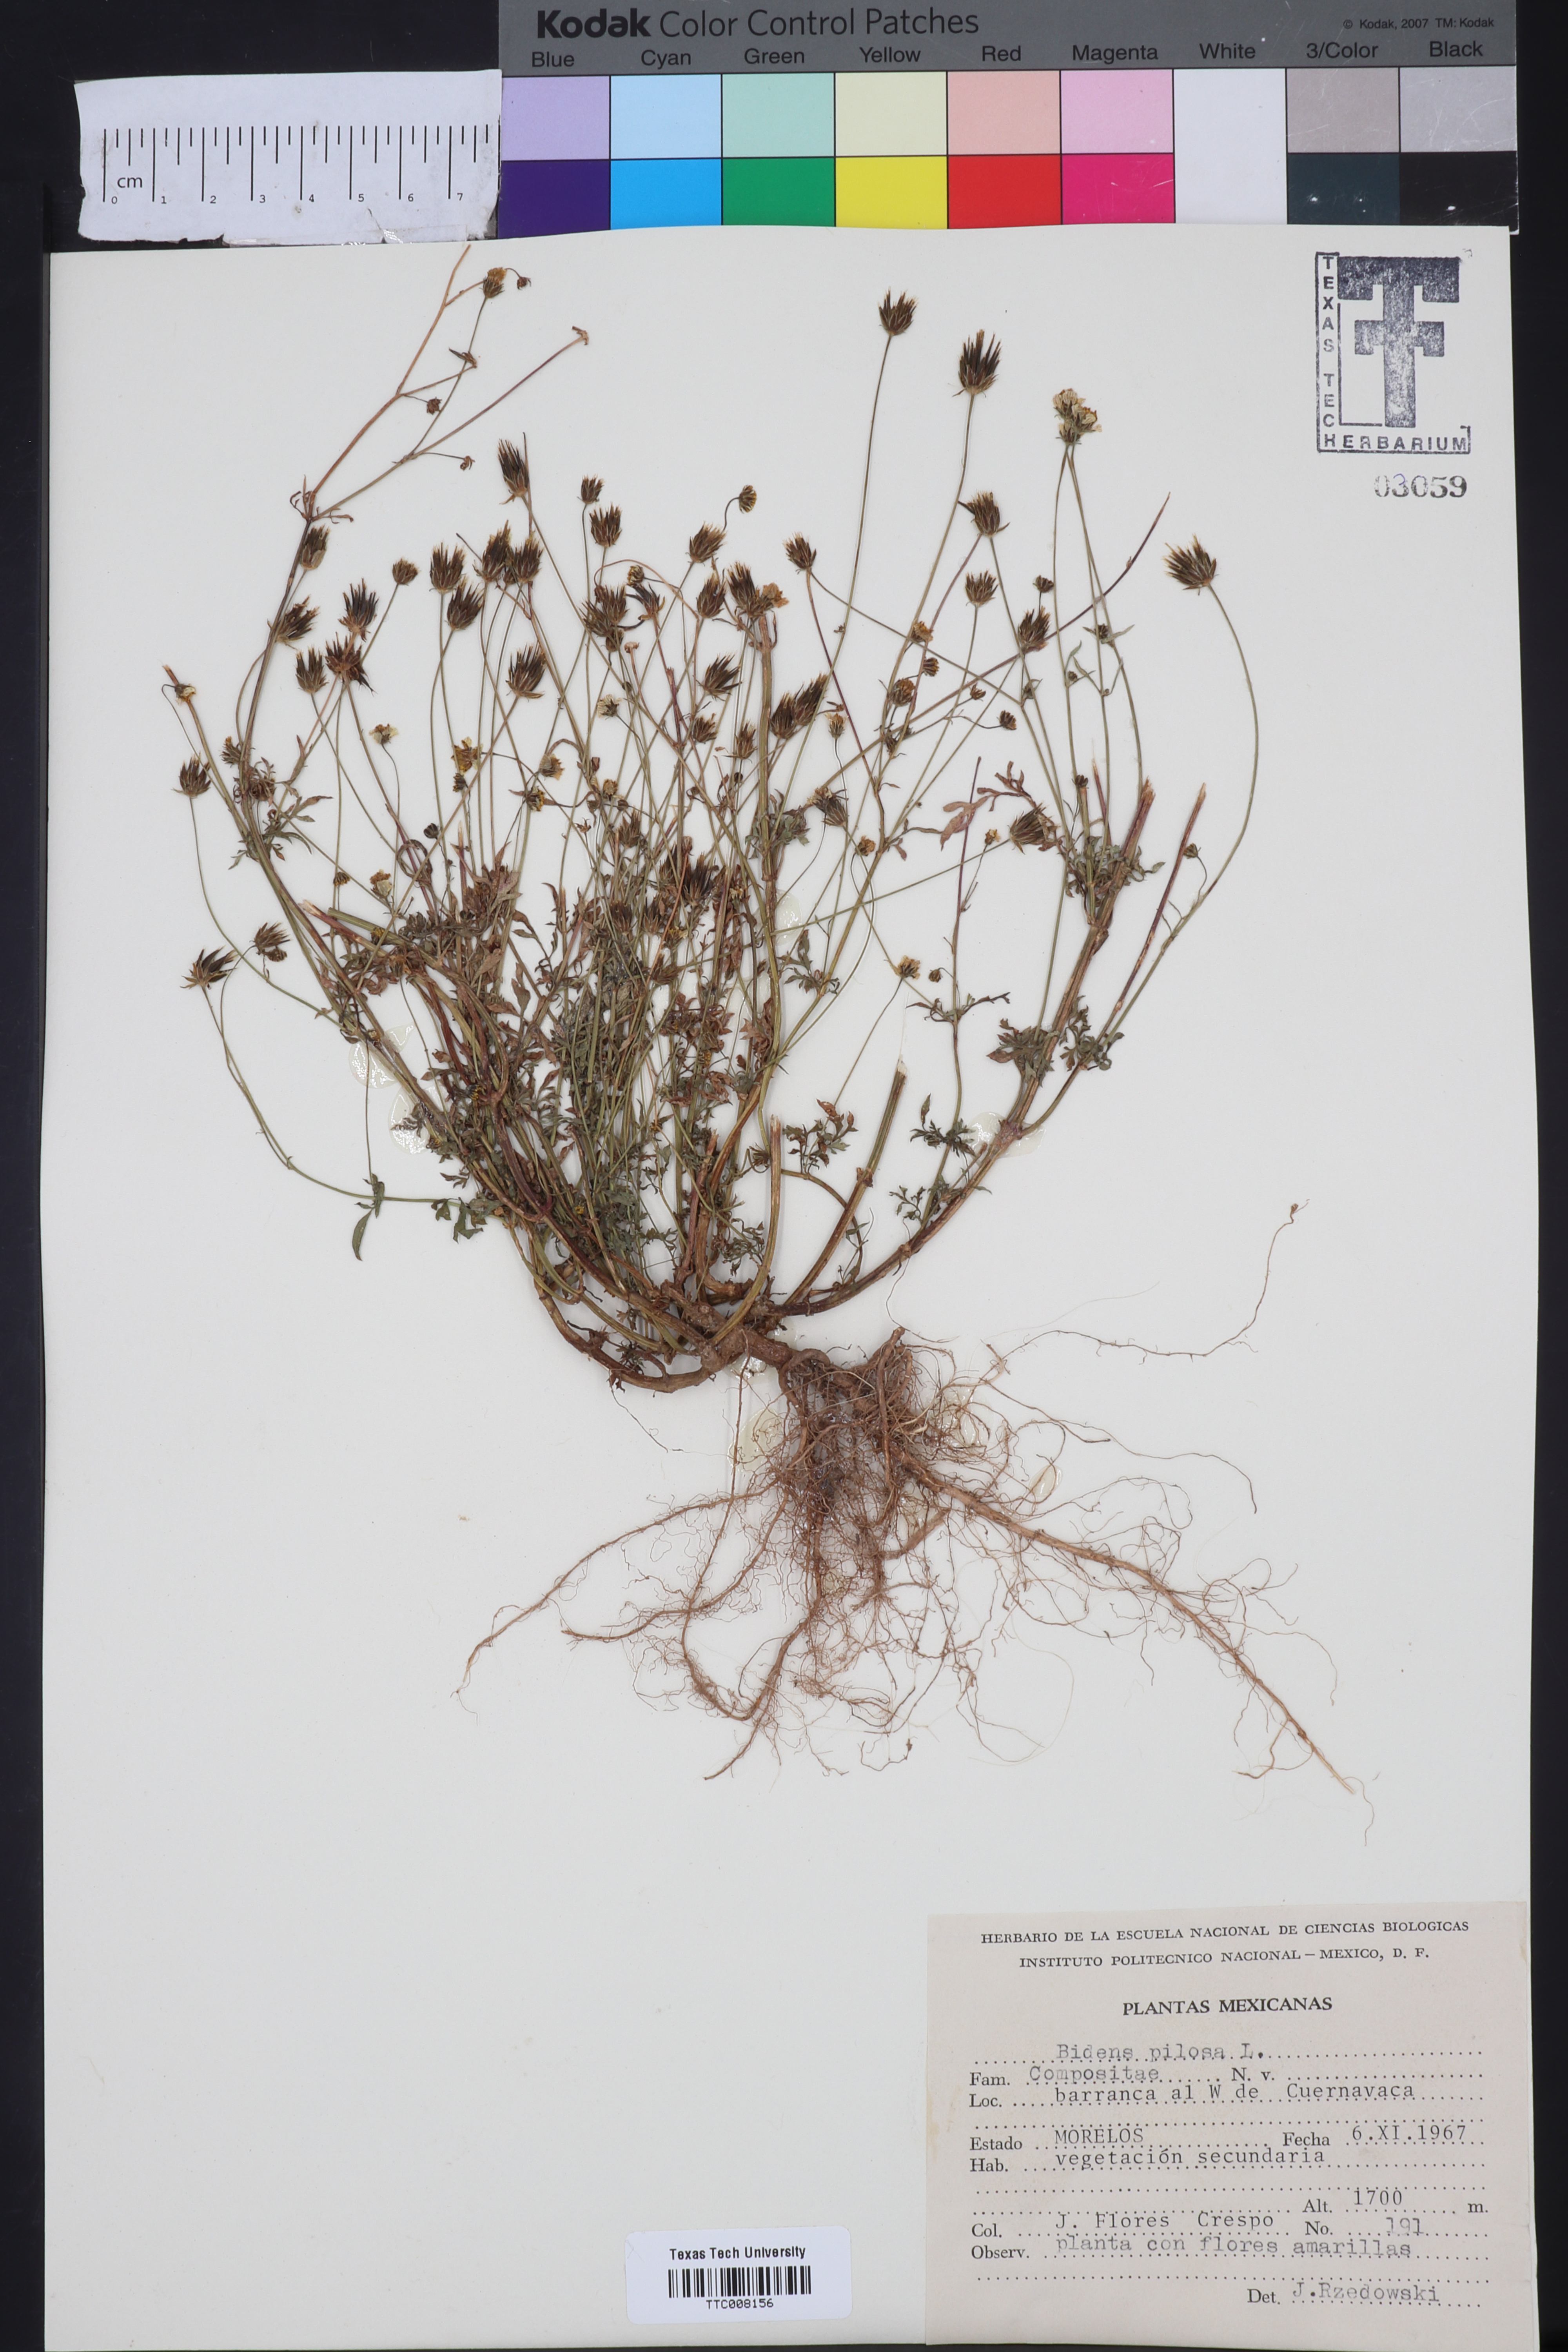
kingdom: Plantae
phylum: Tracheophyta
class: Magnoliopsida
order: Asterales
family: Asteraceae
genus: Bidens
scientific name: Bidens pilosa
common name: Black-jack
